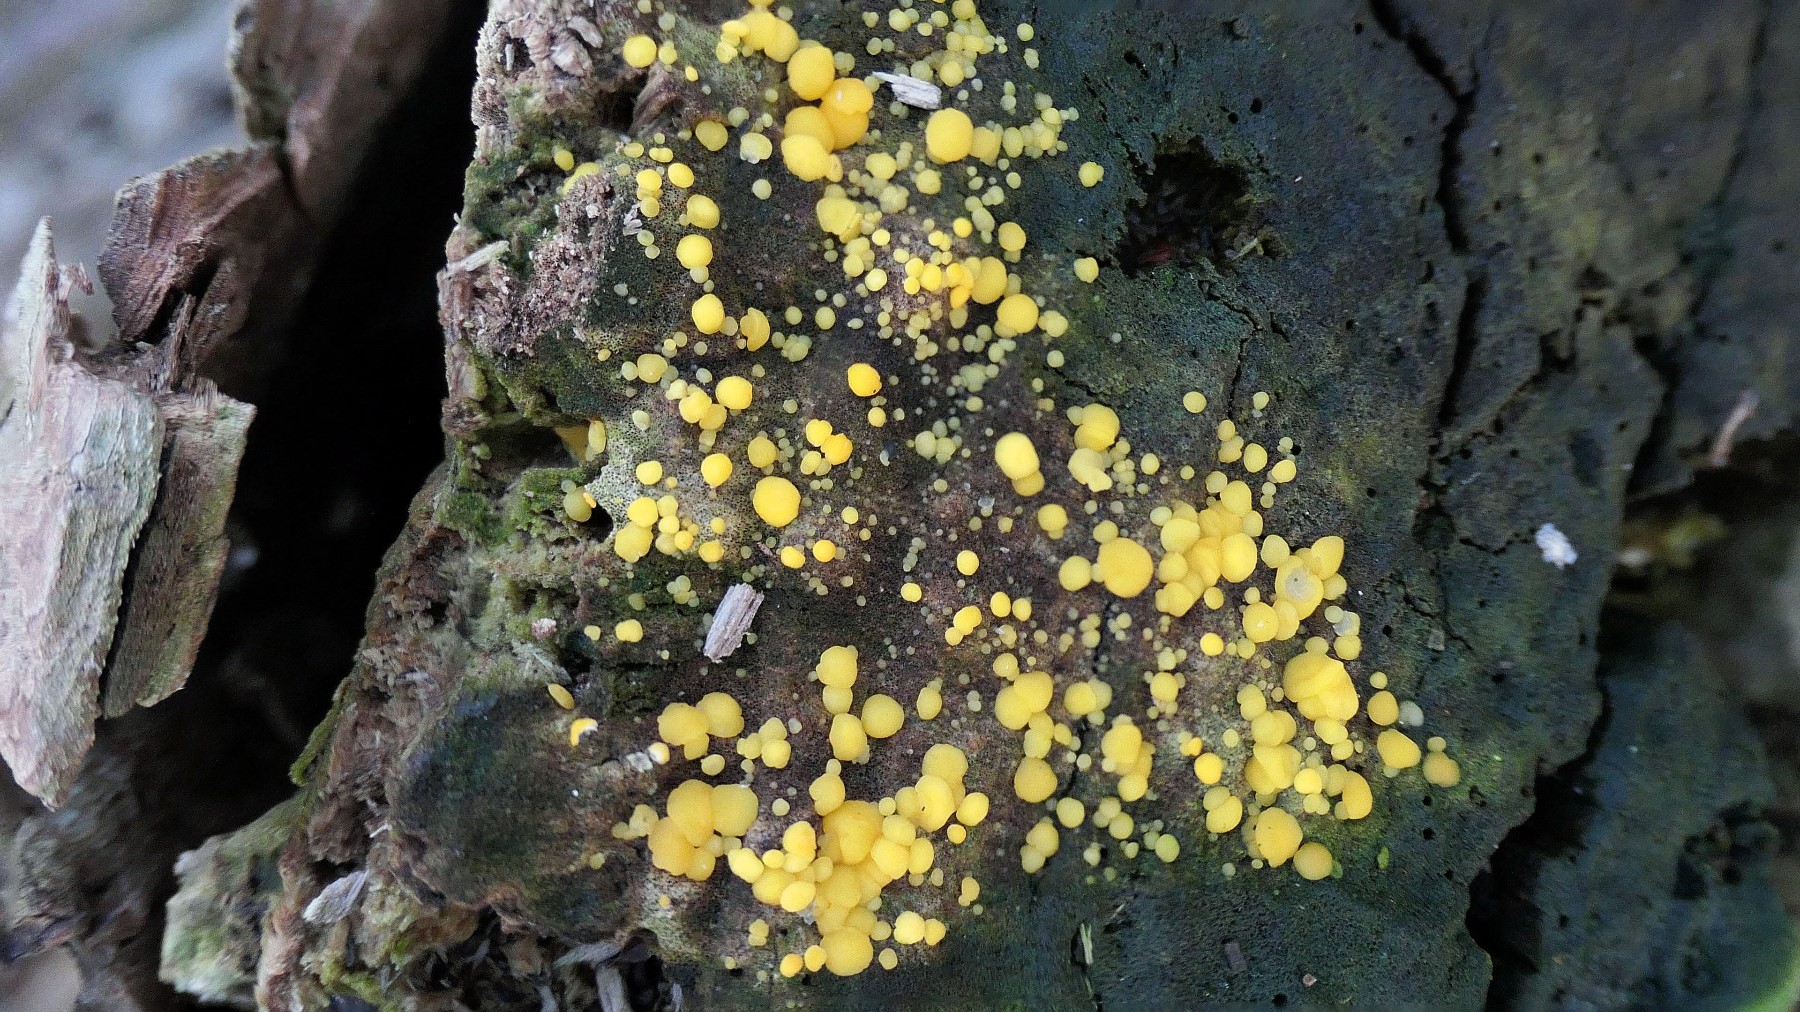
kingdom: Fungi
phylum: Ascomycota
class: Leotiomycetes
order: Helotiales
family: Pezizellaceae
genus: Calycina
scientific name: Calycina citrina
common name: almindelig gulskive
